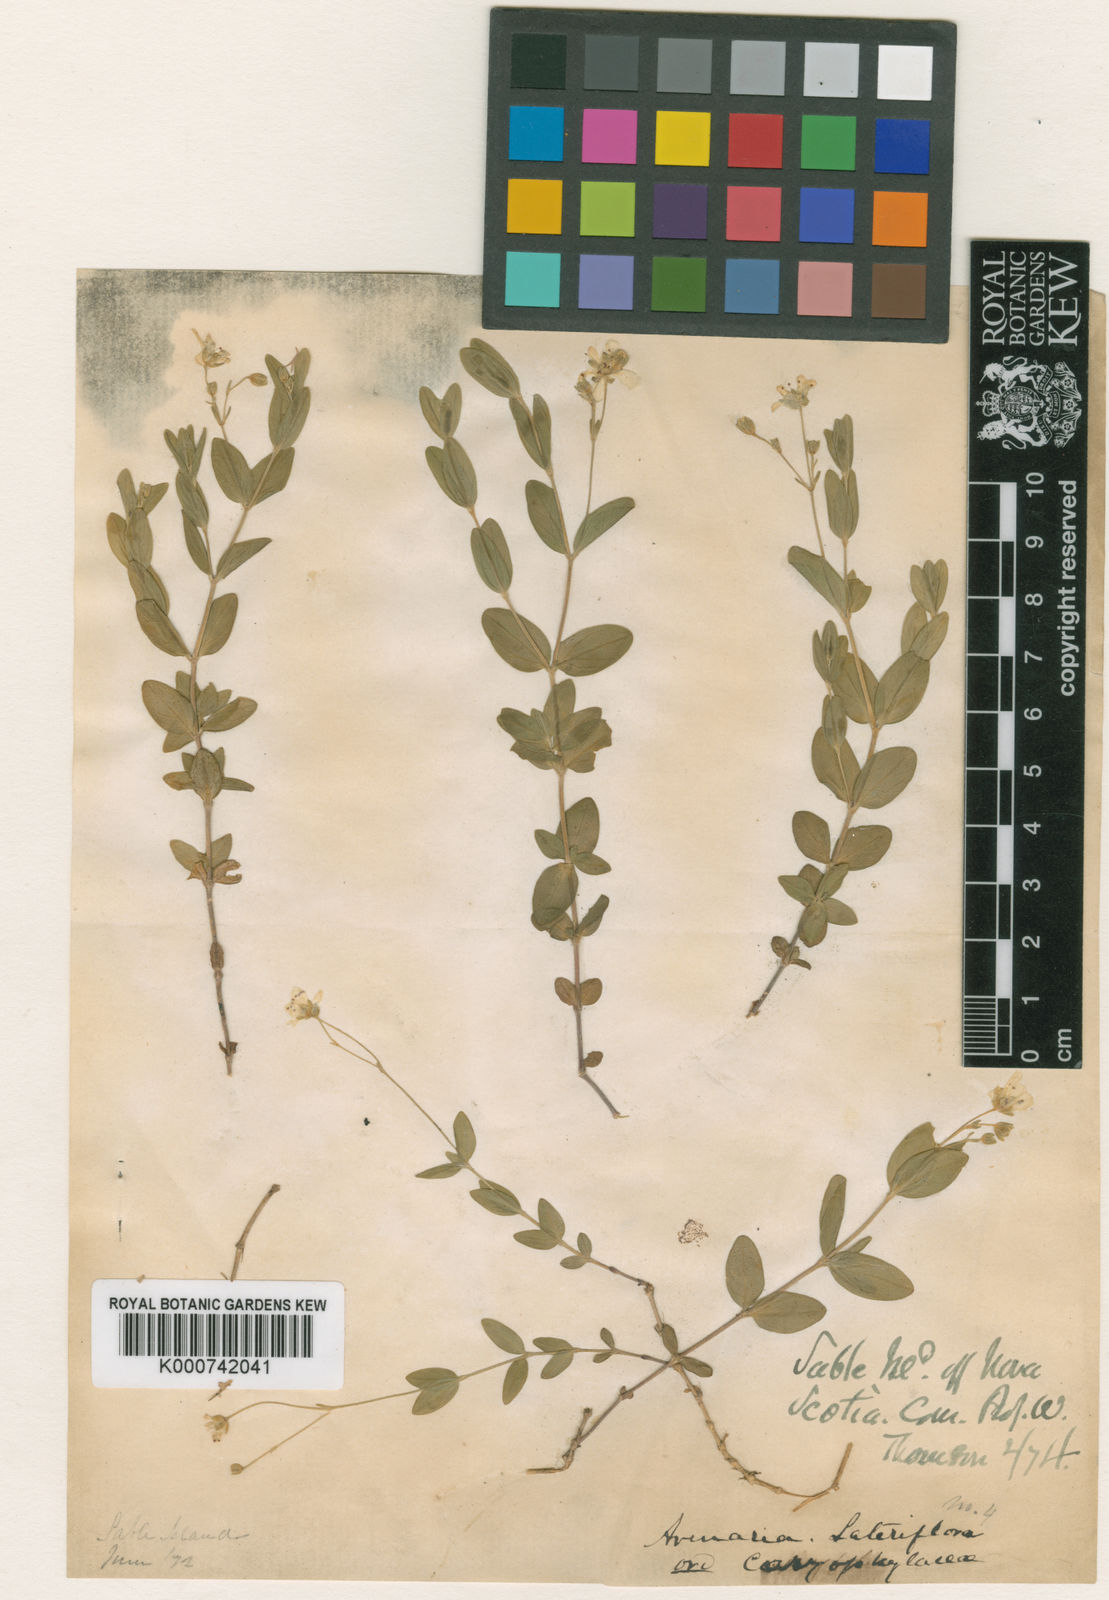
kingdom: Plantae
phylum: Tracheophyta
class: Magnoliopsida
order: Caryophyllales
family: Caryophyllaceae
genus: Moehringia
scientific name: Moehringia macrophylla
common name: Big-leaf sandwort
